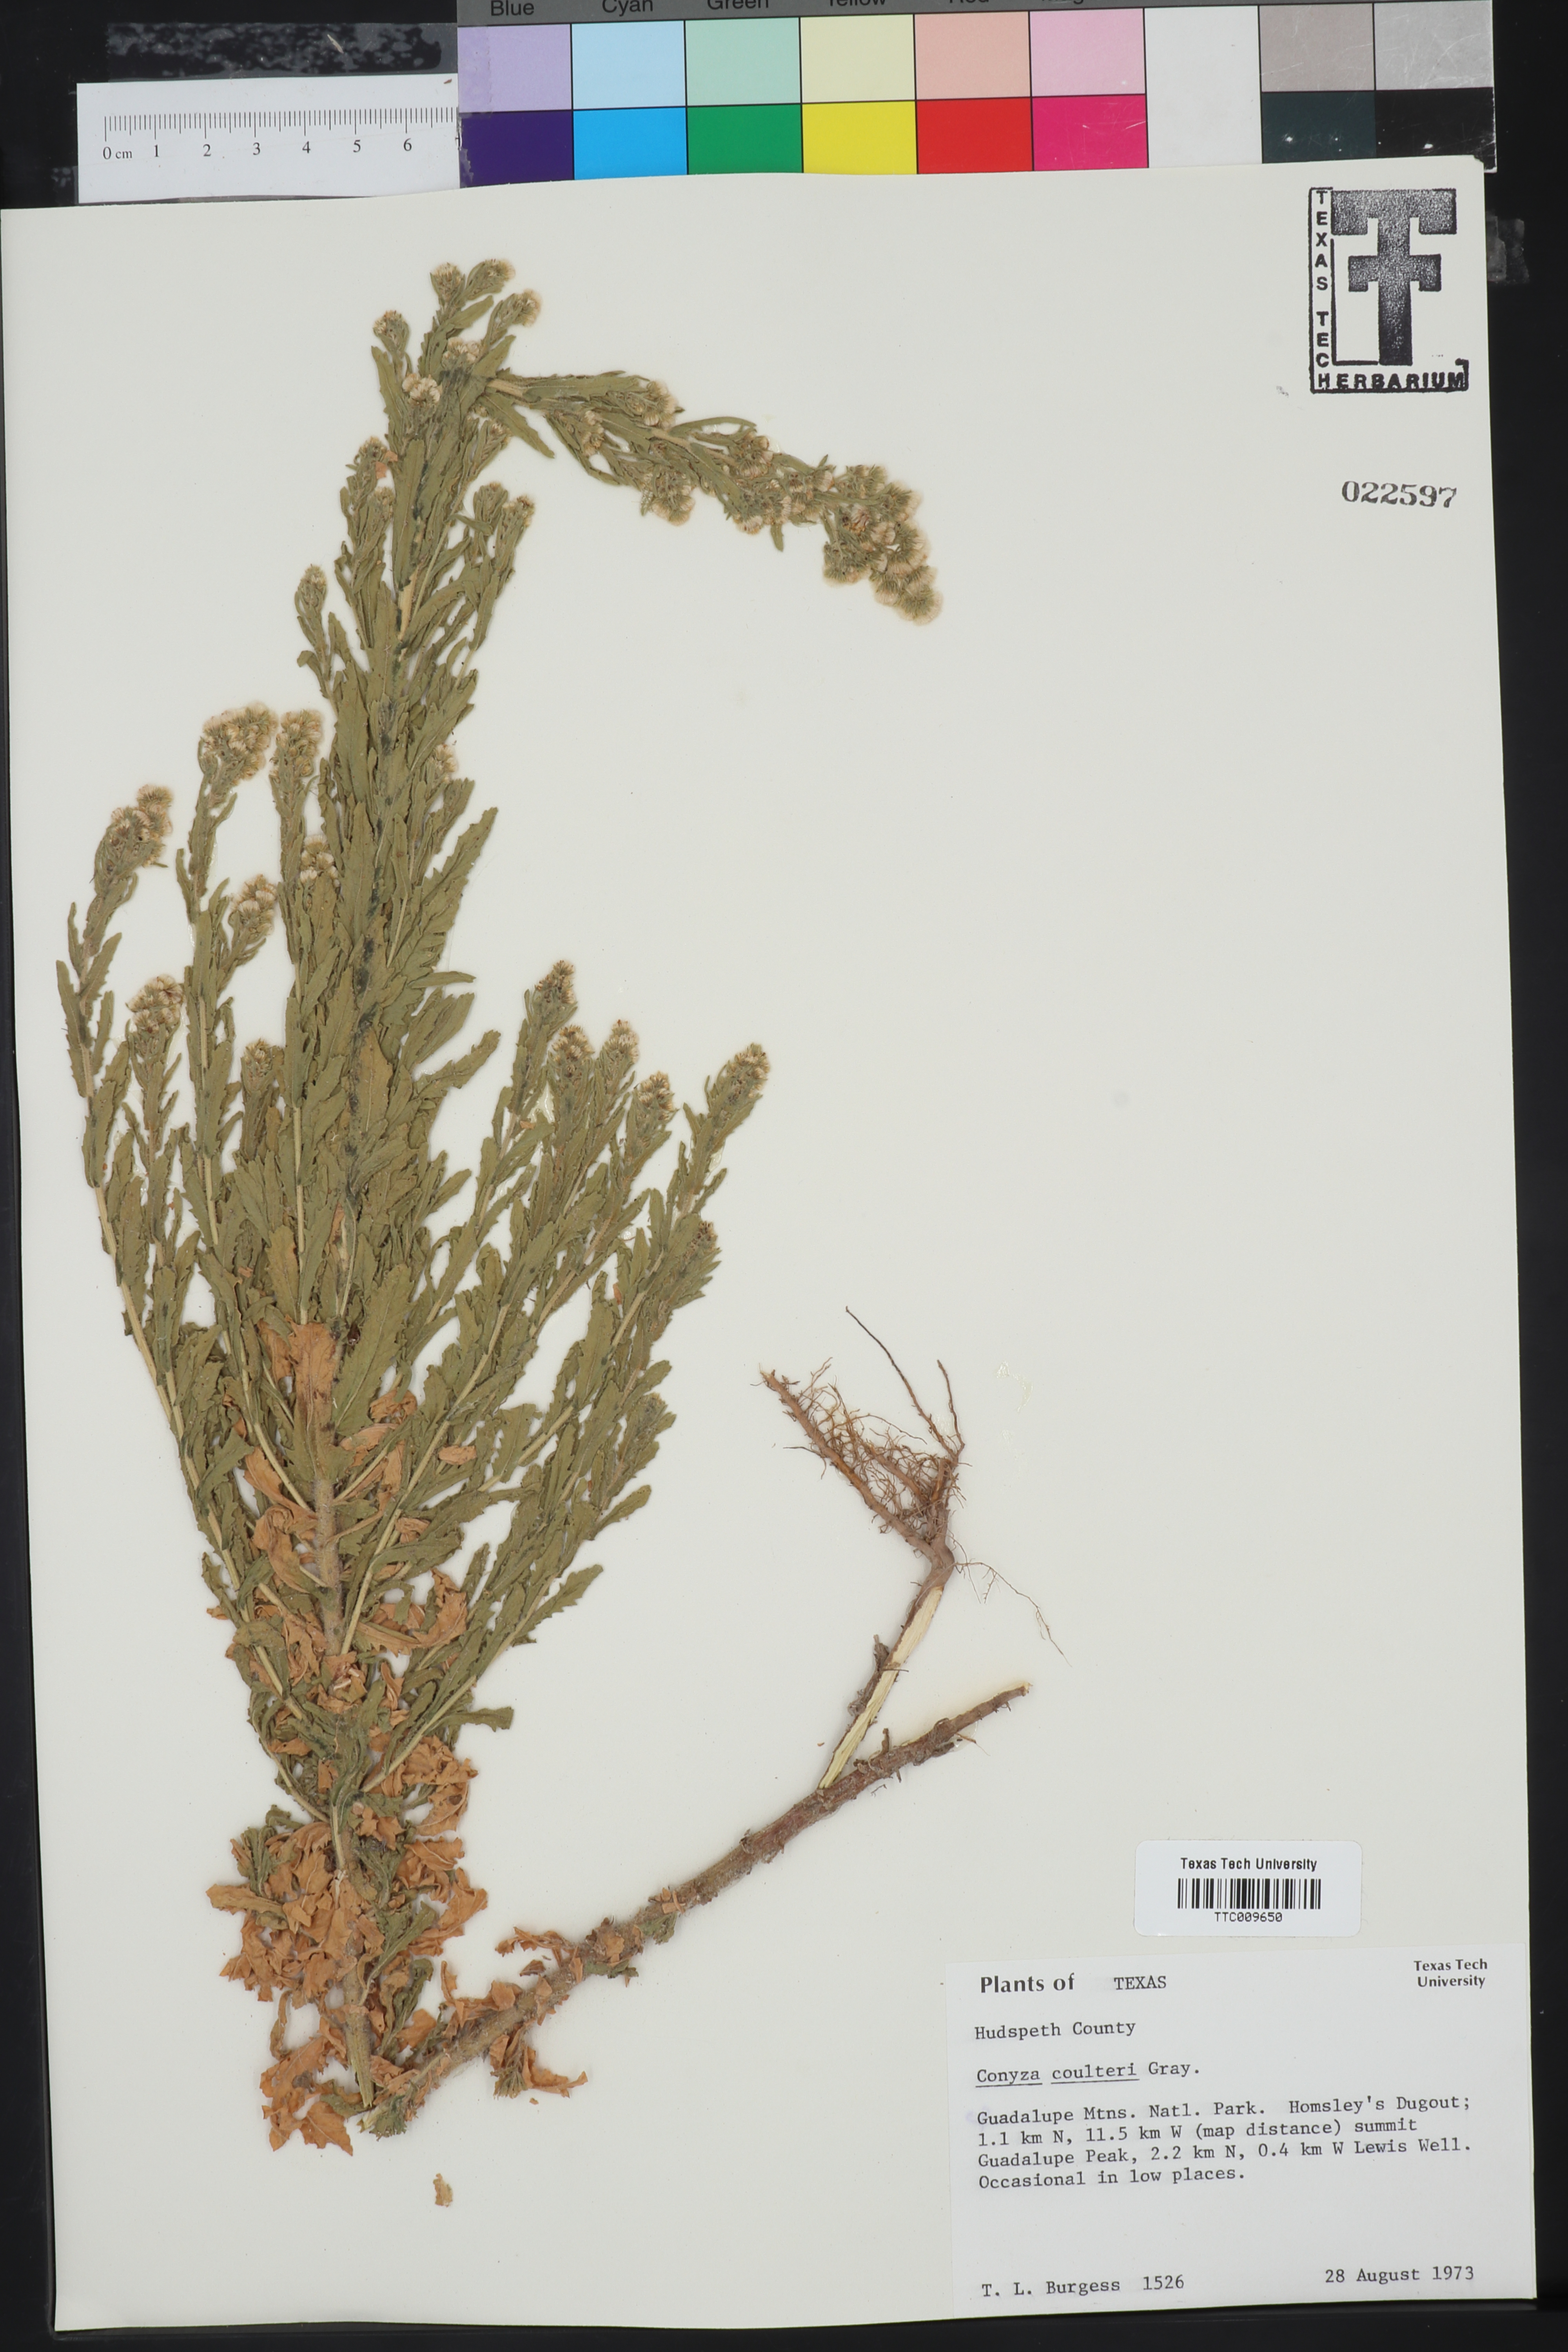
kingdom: Plantae
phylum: Tracheophyta
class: Magnoliopsida
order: Asterales
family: Asteraceae
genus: Laennecia
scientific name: Laennecia coulteri
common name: Coulter's woolwort
